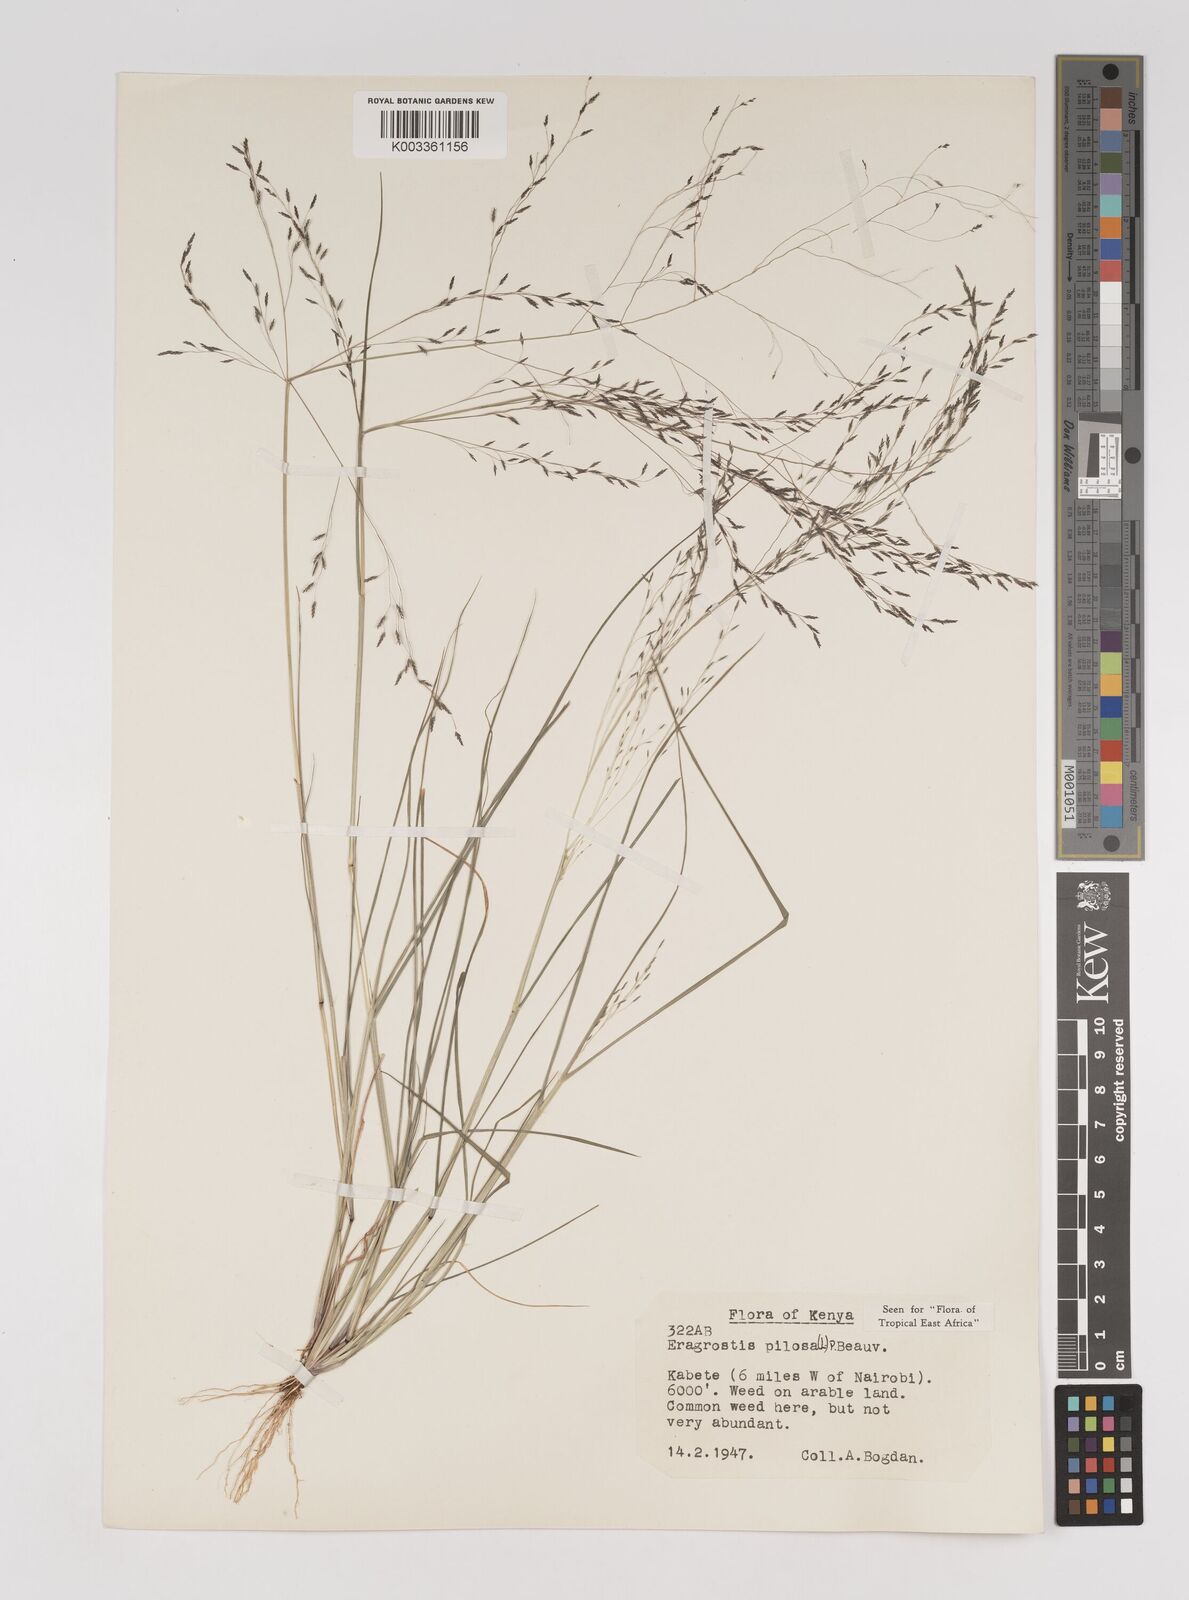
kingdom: Plantae
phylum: Tracheophyta
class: Liliopsida
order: Poales
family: Poaceae
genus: Eragrostis
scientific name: Eragrostis pilosa
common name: Indian lovegrass
